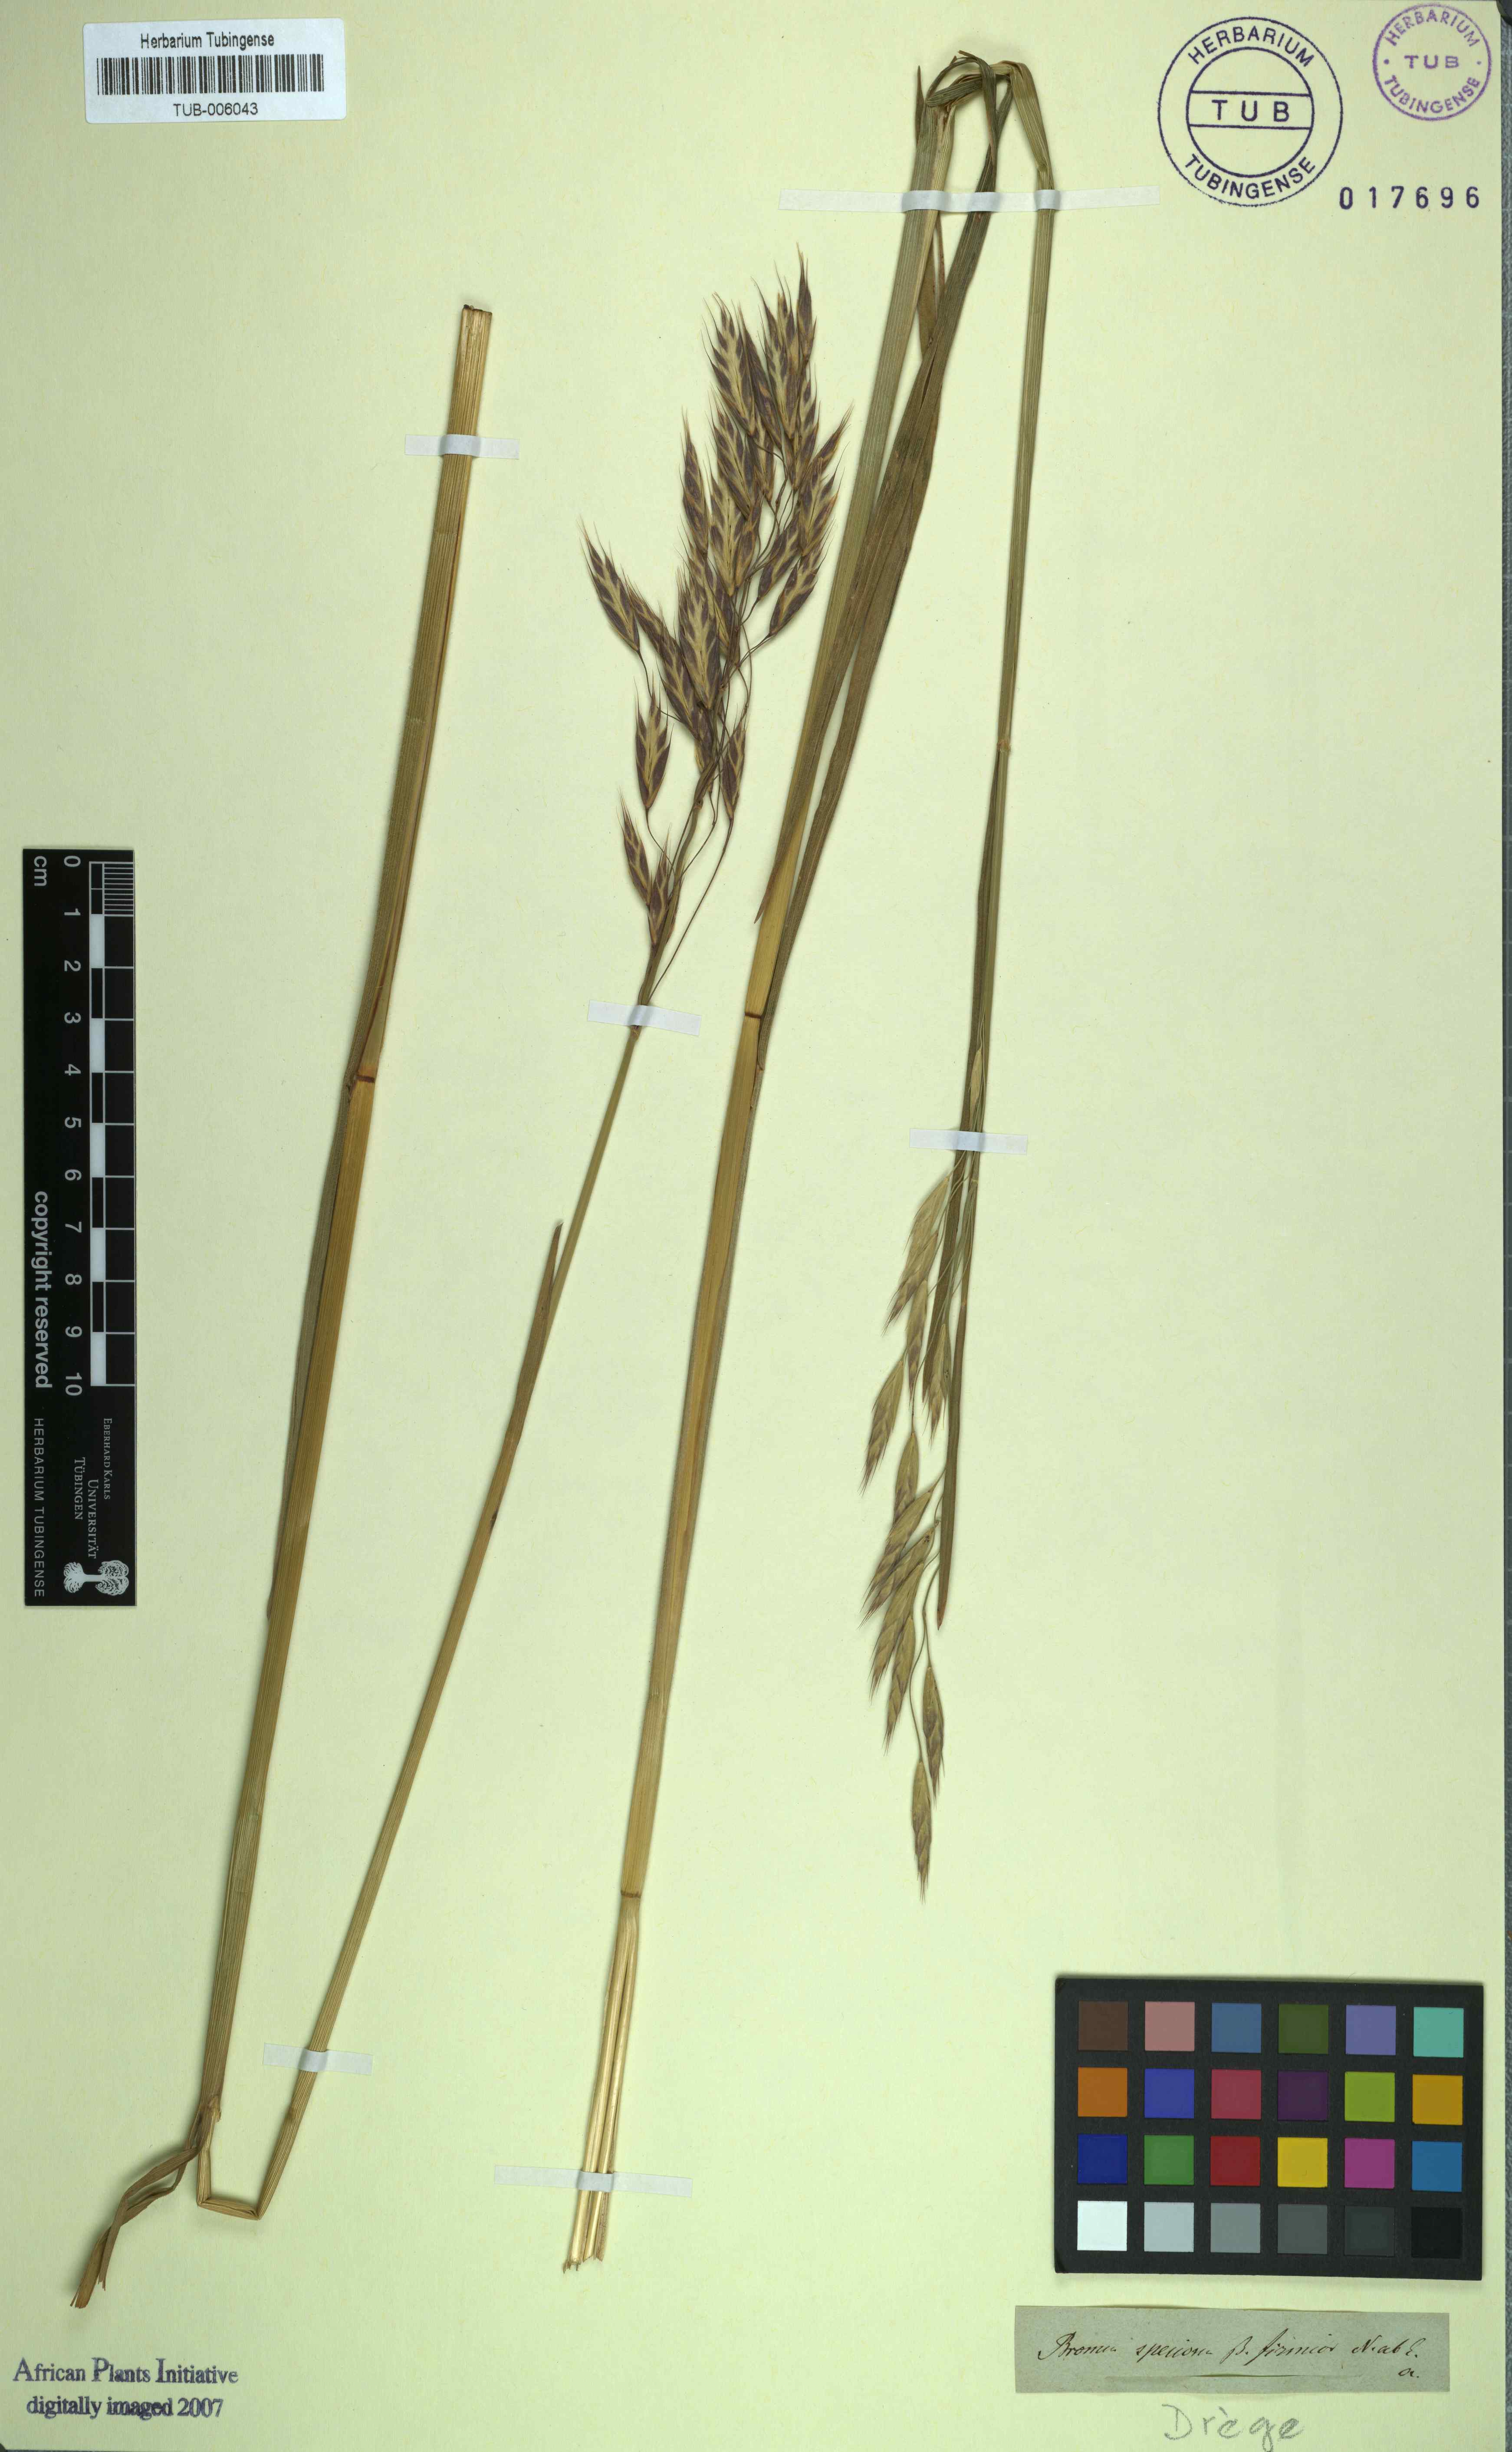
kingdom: Plantae
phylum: Tracheophyta
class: Liliopsida
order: Poales
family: Poaceae
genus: Bromus
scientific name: Bromus speciosus
